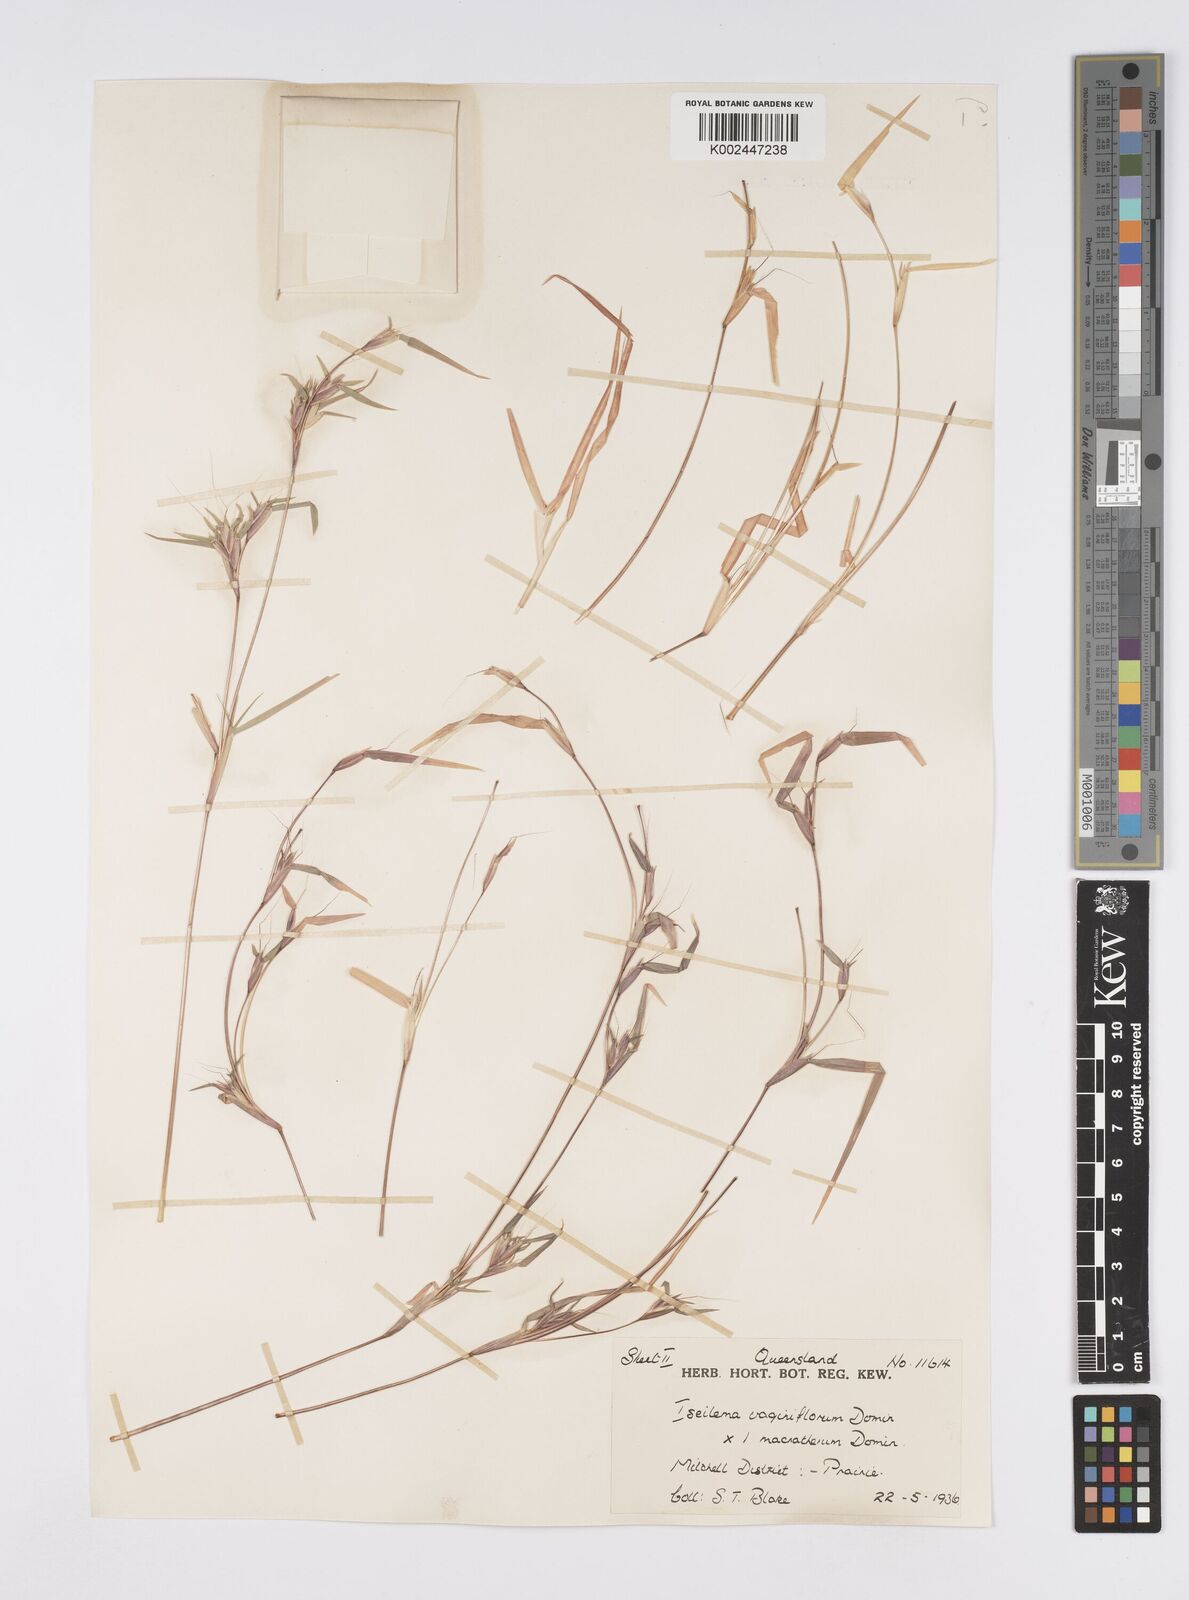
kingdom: Plantae
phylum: Tracheophyta
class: Liliopsida
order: Poales
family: Poaceae
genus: Iseilema
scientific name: Iseilema macratherum
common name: Bull flinders grass
